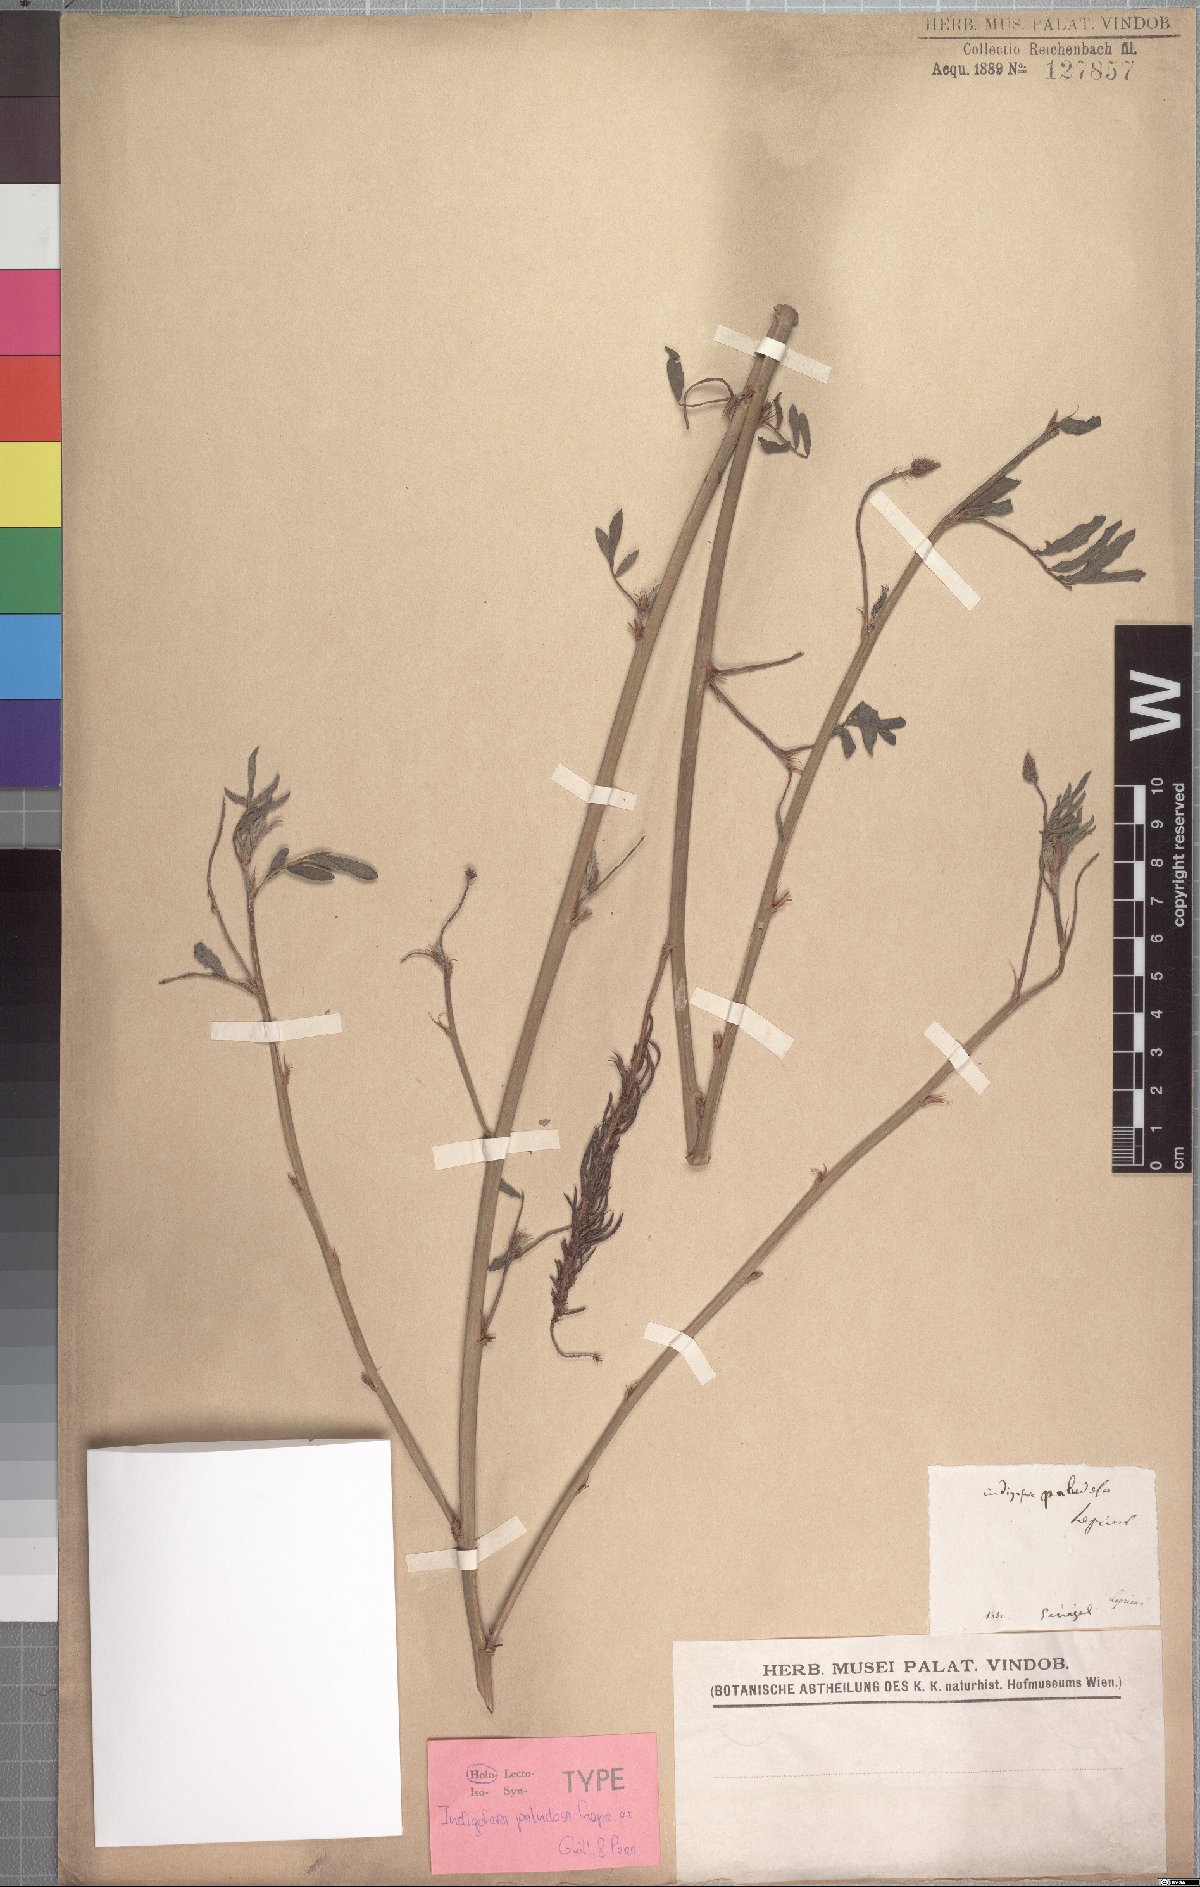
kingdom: Plantae
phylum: Tracheophyta
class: Magnoliopsida
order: Fabales
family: Fabaceae
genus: Indigofera
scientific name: Indigofera hendecaphylla
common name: Trailing indigo
